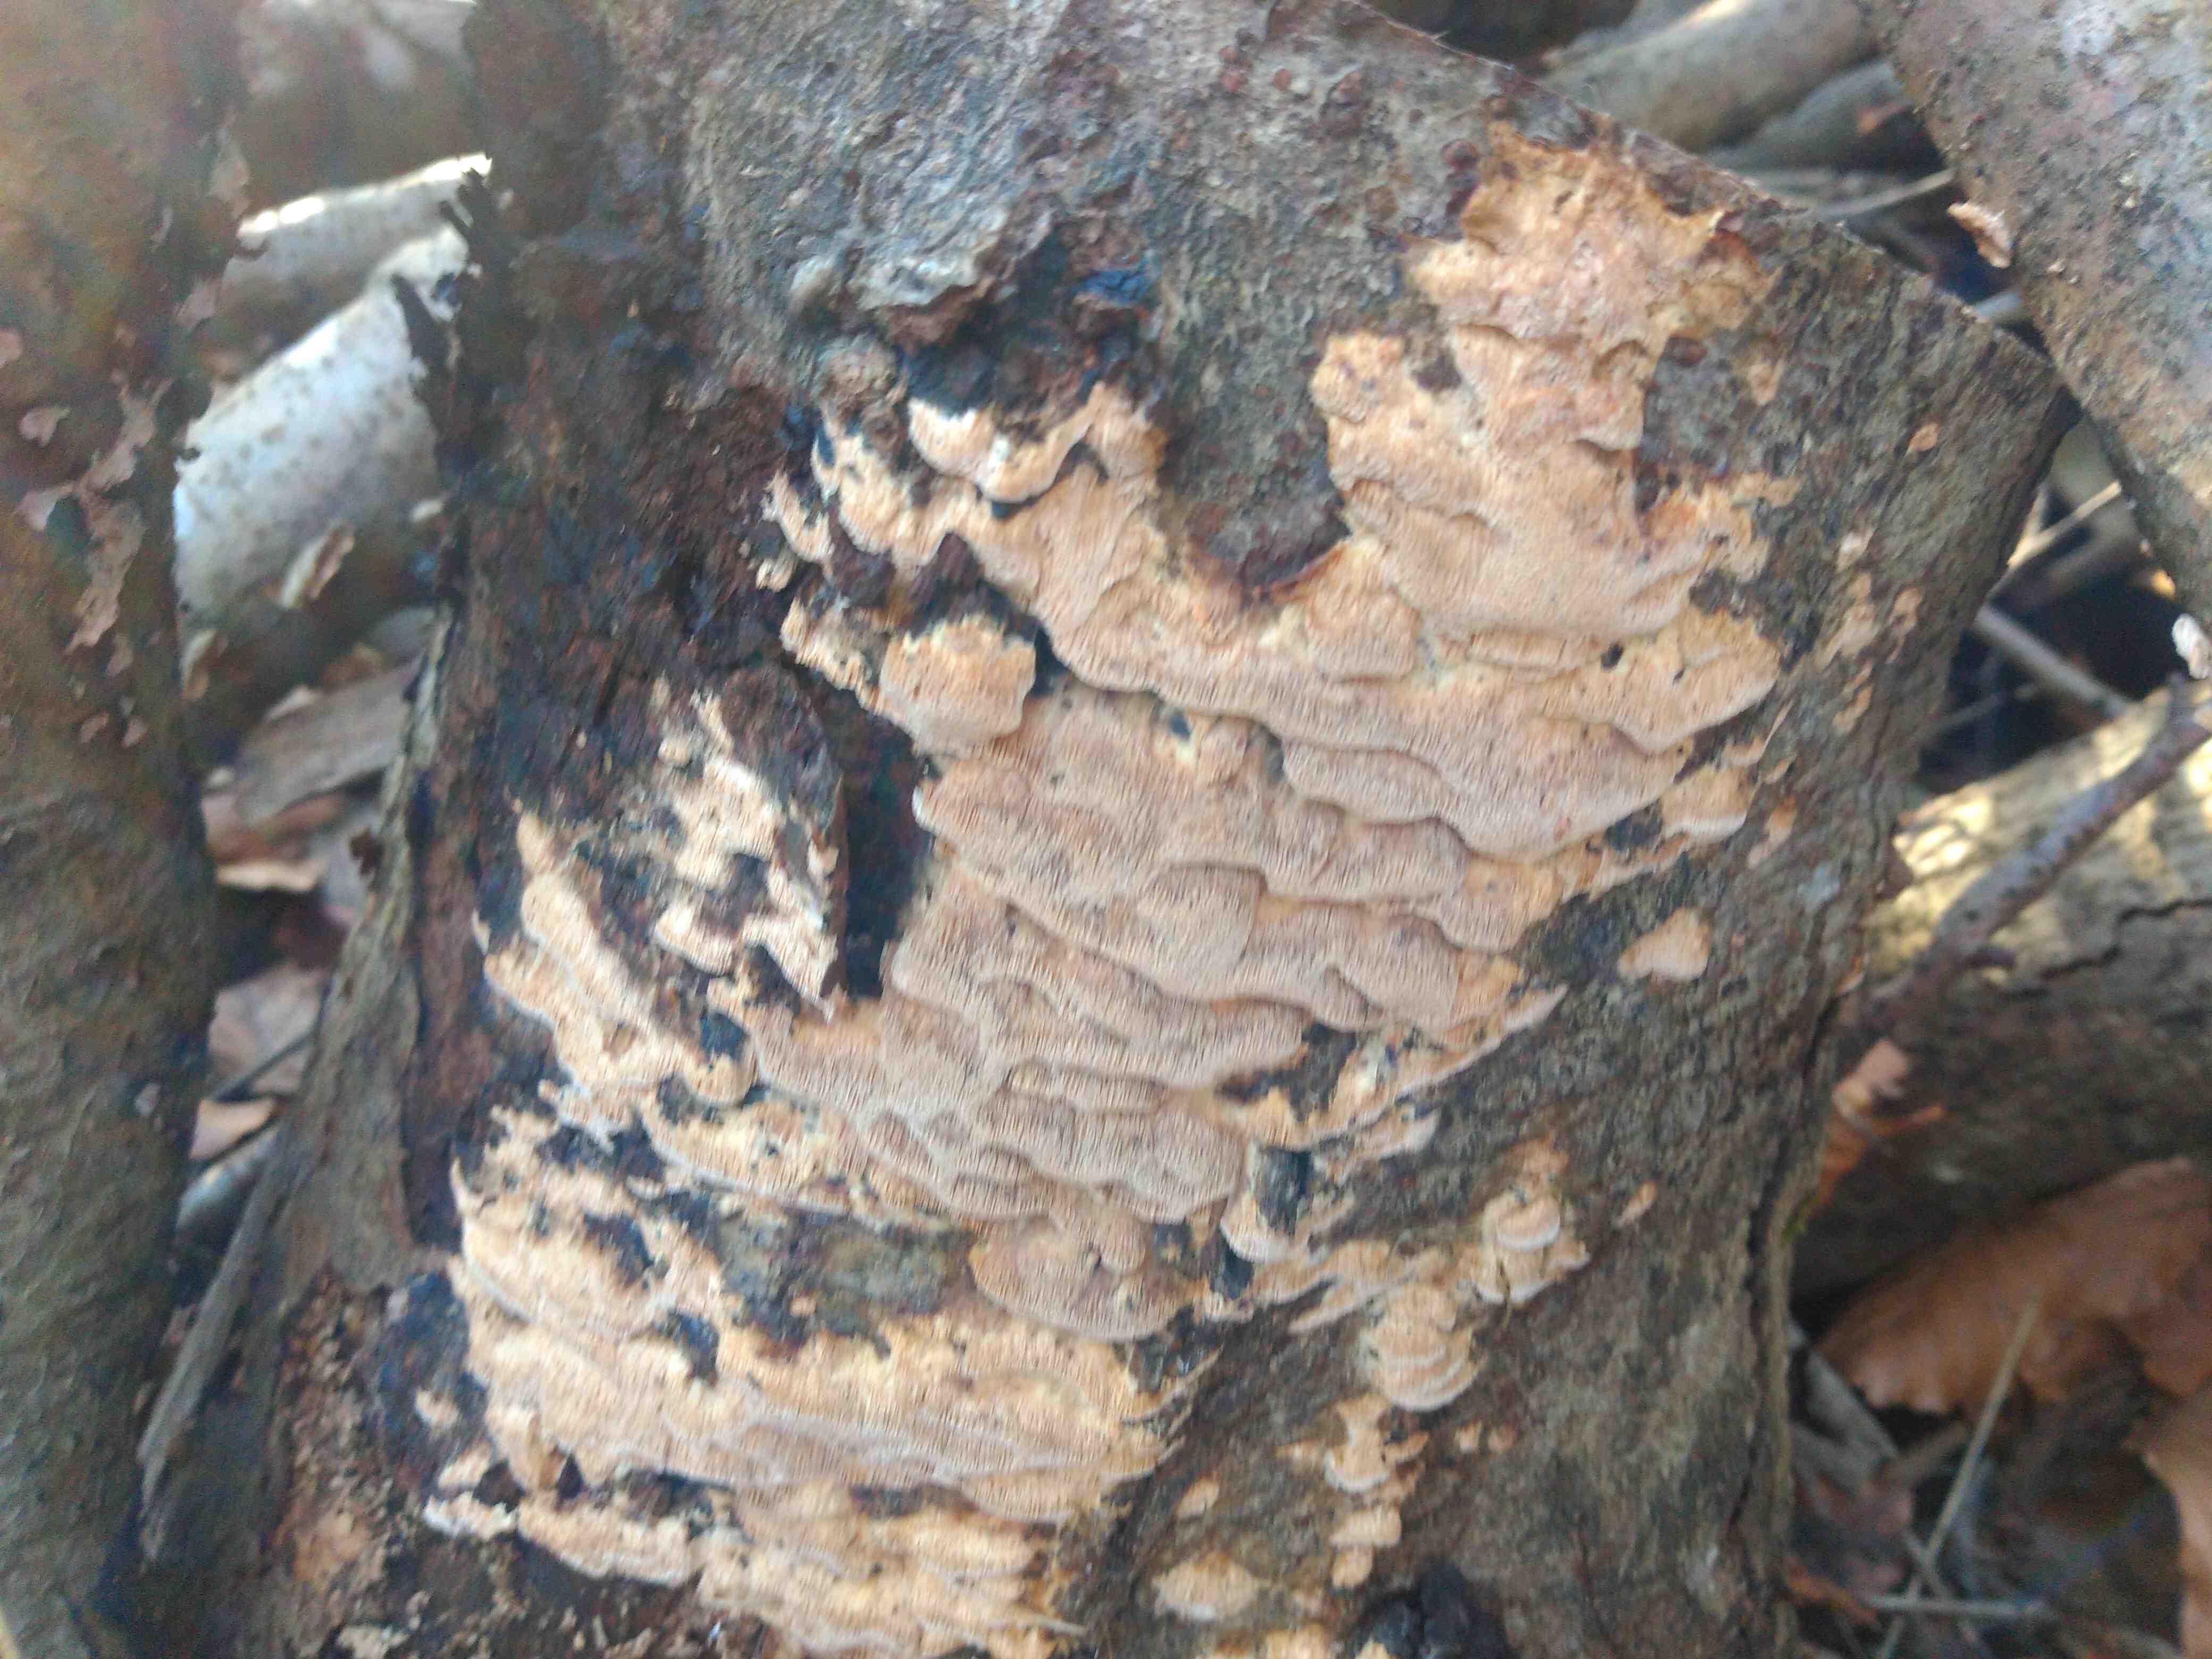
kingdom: Fungi
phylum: Basidiomycota
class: Agaricomycetes
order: Polyporales
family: Meruliaceae
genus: Mycoacia
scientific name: Mycoacia gilvescens
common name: rosa pastelporesvamp
